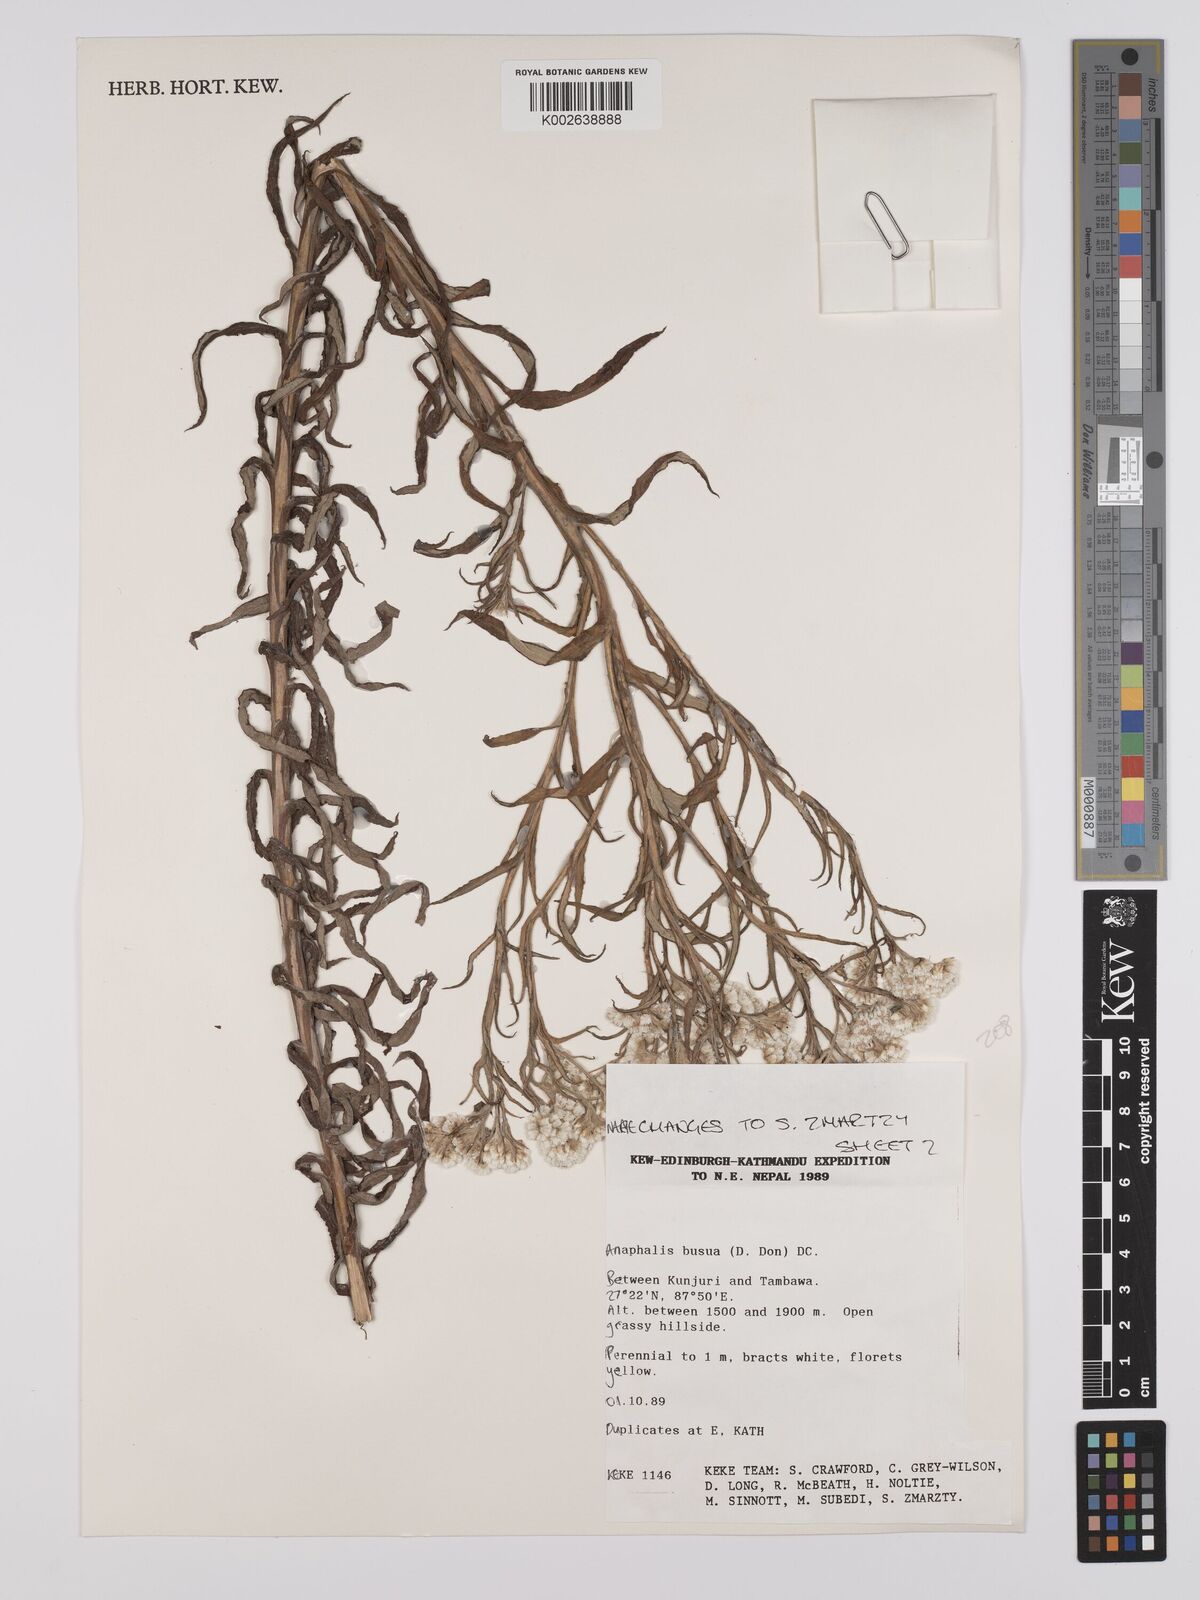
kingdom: Plantae
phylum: Tracheophyta
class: Magnoliopsida
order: Asterales
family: Asteraceae
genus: Anaphalis
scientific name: Anaphalis busua
